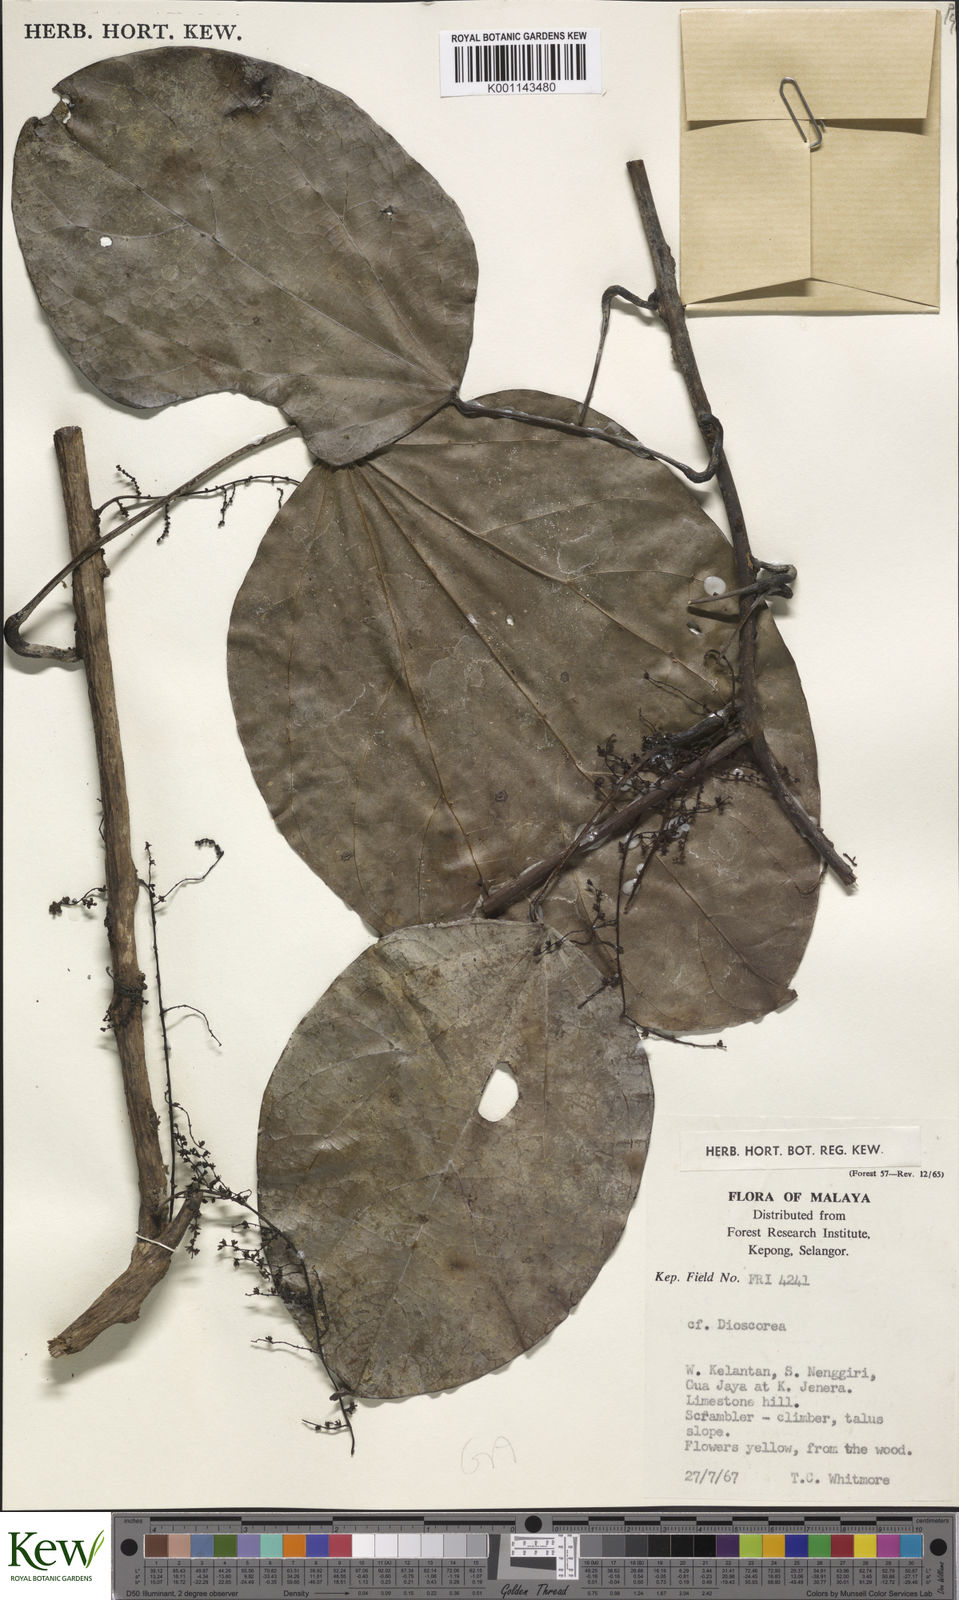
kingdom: Plantae
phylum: Tracheophyta
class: Liliopsida
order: Dioscoreales
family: Dioscoreaceae
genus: Dioscorea
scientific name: Dioscorea
